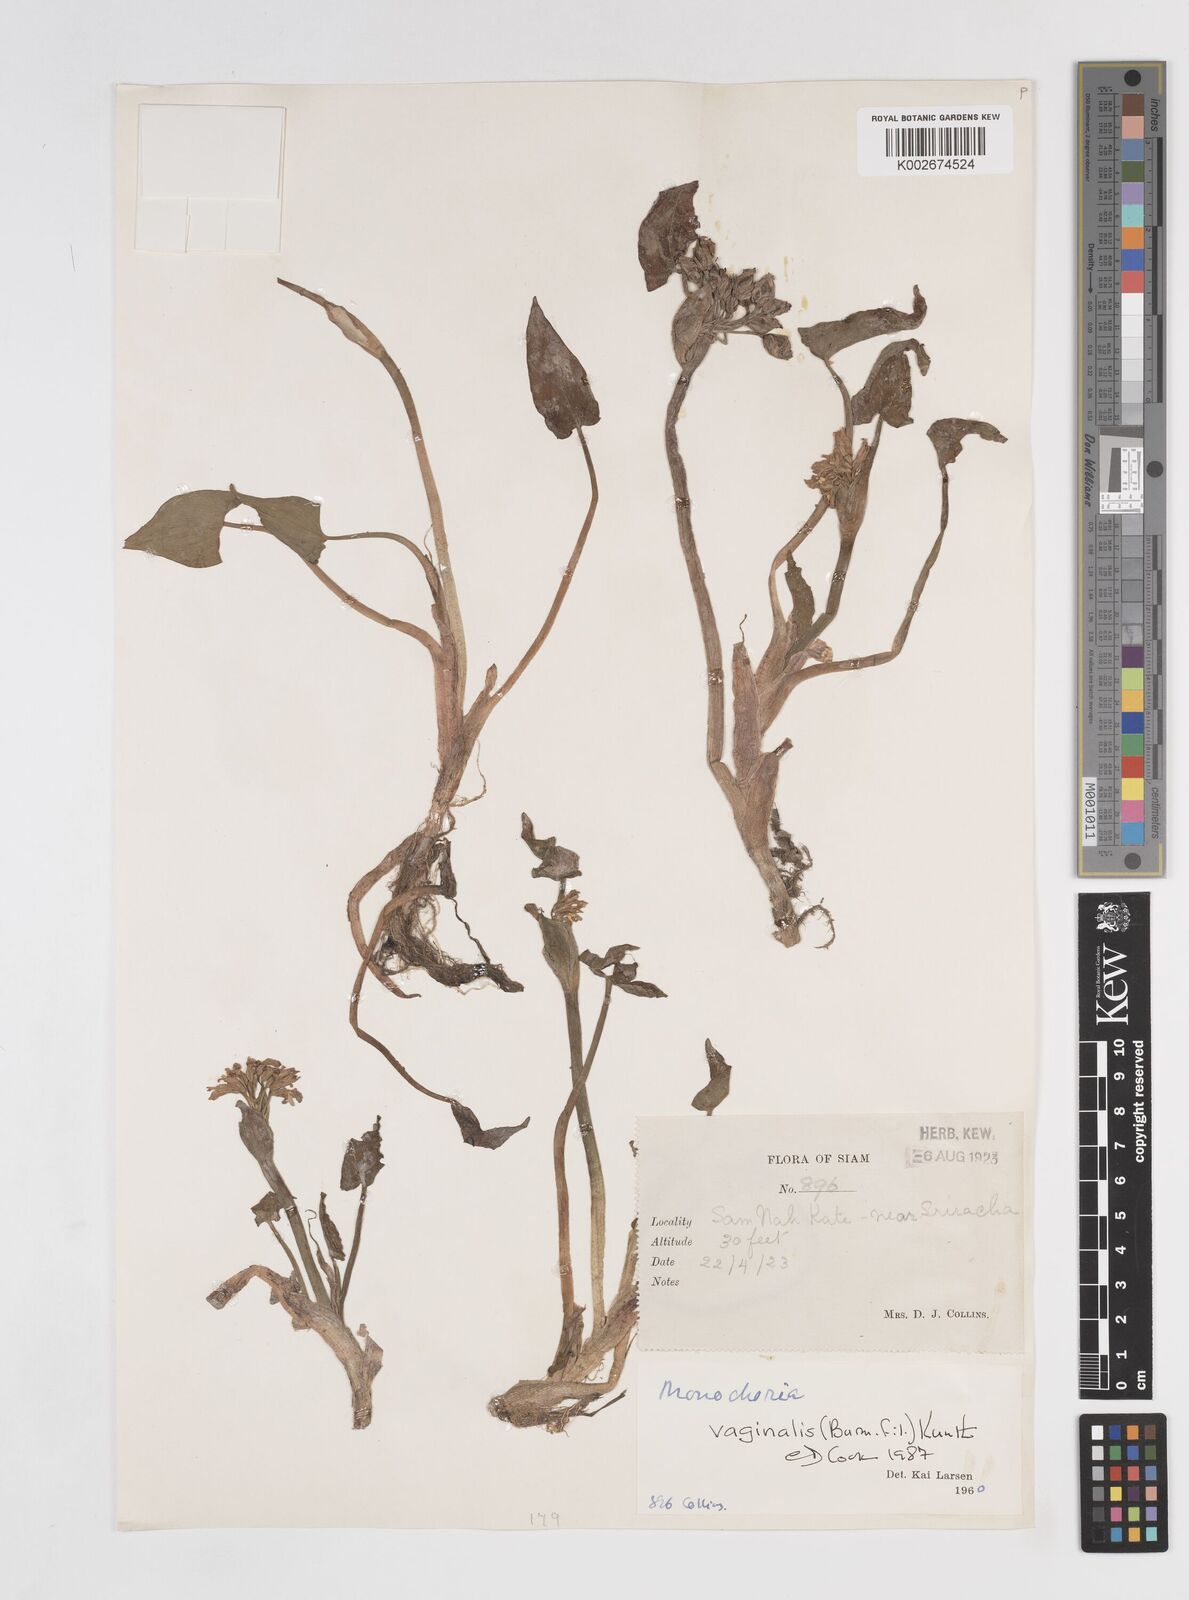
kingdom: Plantae
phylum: Tracheophyta
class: Liliopsida
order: Commelinales
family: Pontederiaceae
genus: Pontederia
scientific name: Pontederia vaginalis
